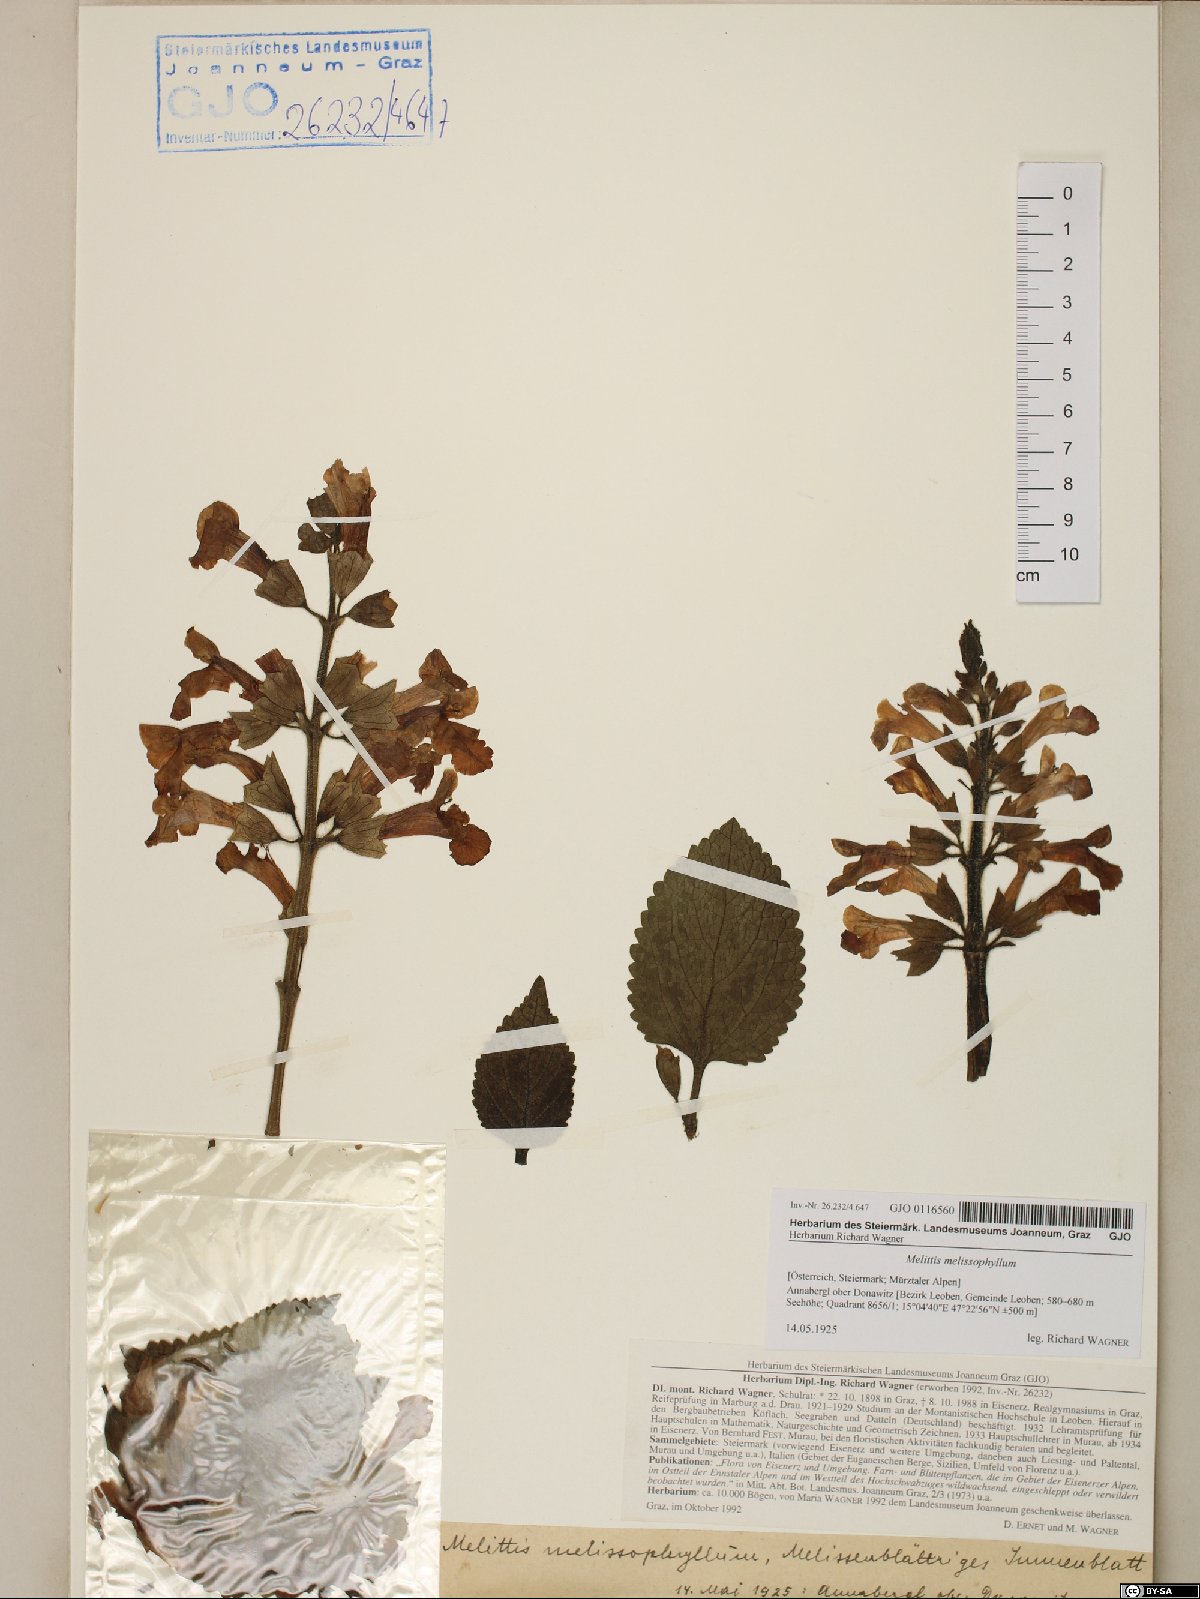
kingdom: Plantae
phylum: Tracheophyta
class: Magnoliopsida
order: Lamiales
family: Lamiaceae
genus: Melittis
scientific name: Melittis melissophyllum
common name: Bastard balm
